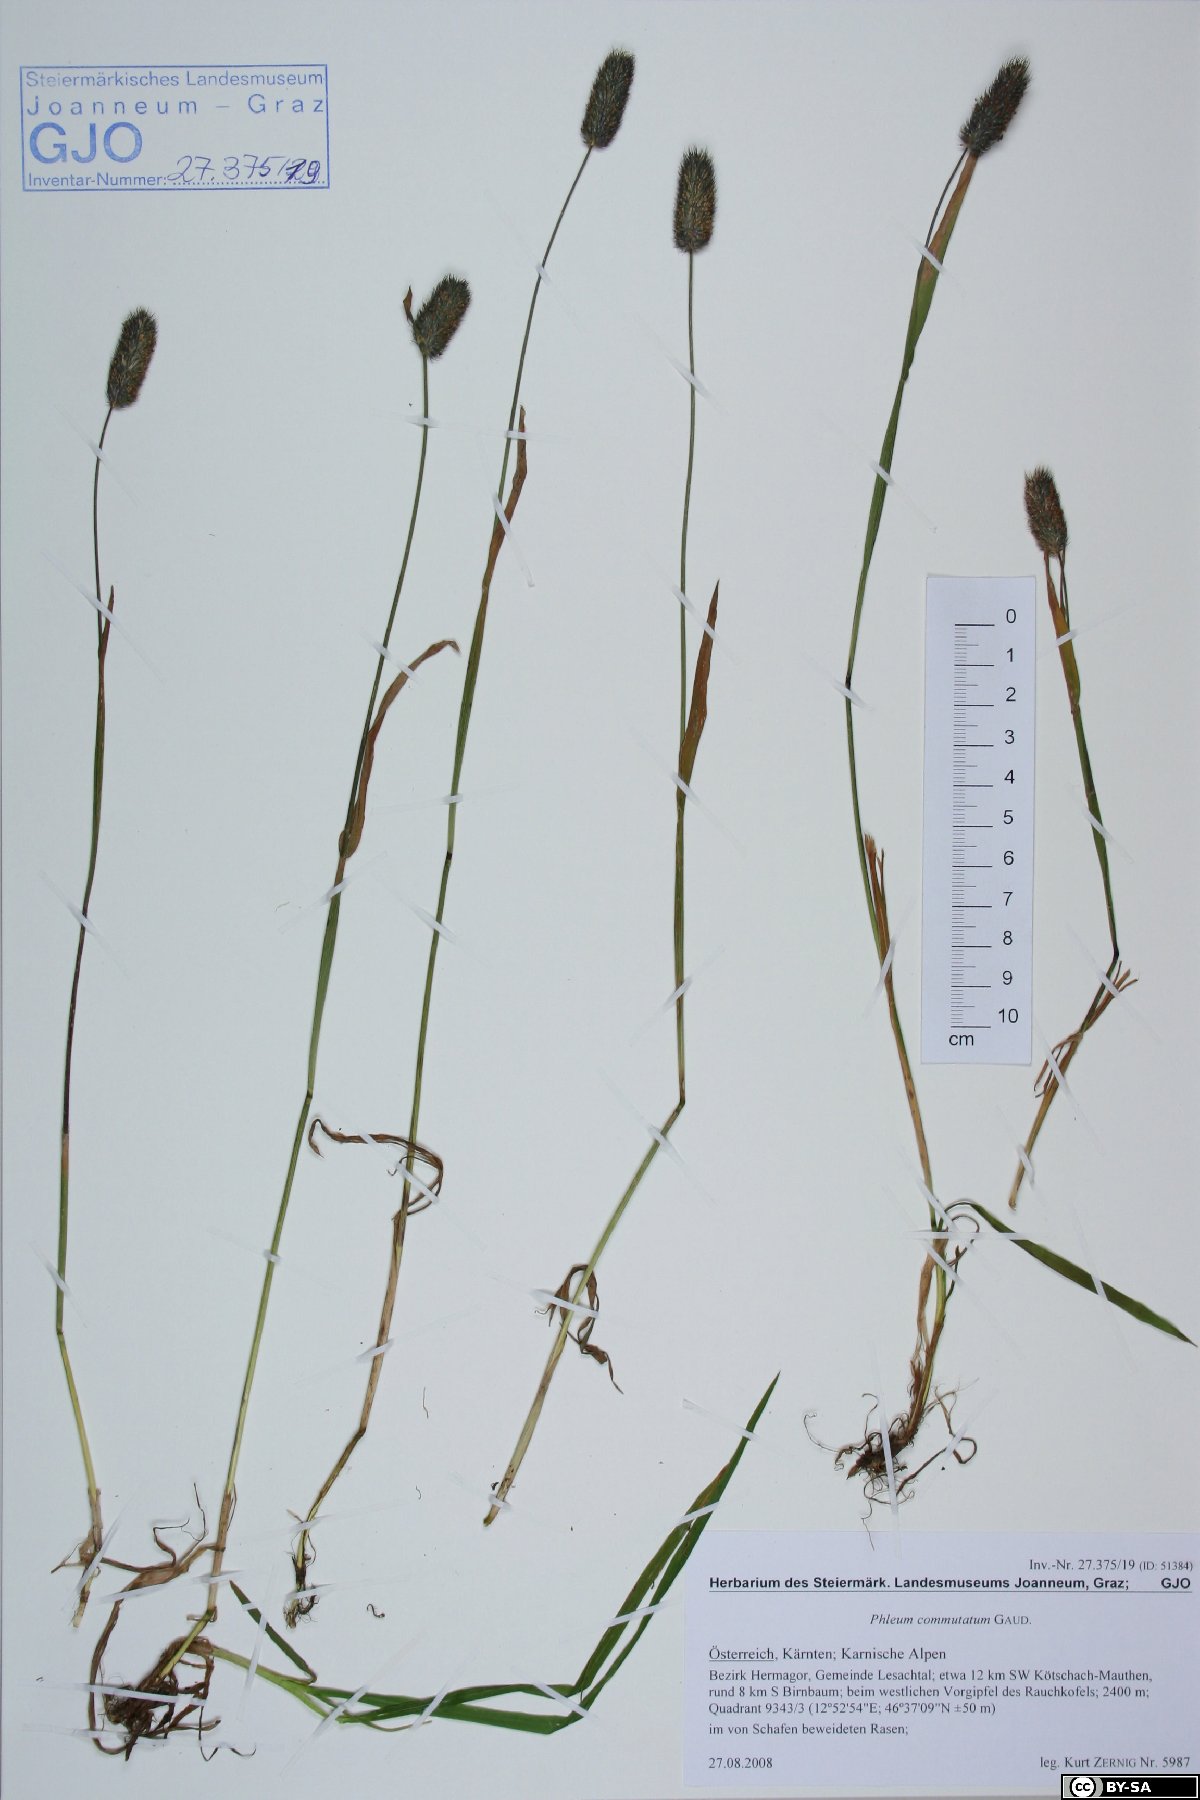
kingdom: Plantae
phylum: Tracheophyta
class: Liliopsida
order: Poales
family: Poaceae
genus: Phleum
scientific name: Phleum alpinum
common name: Alpine cat's-tail
